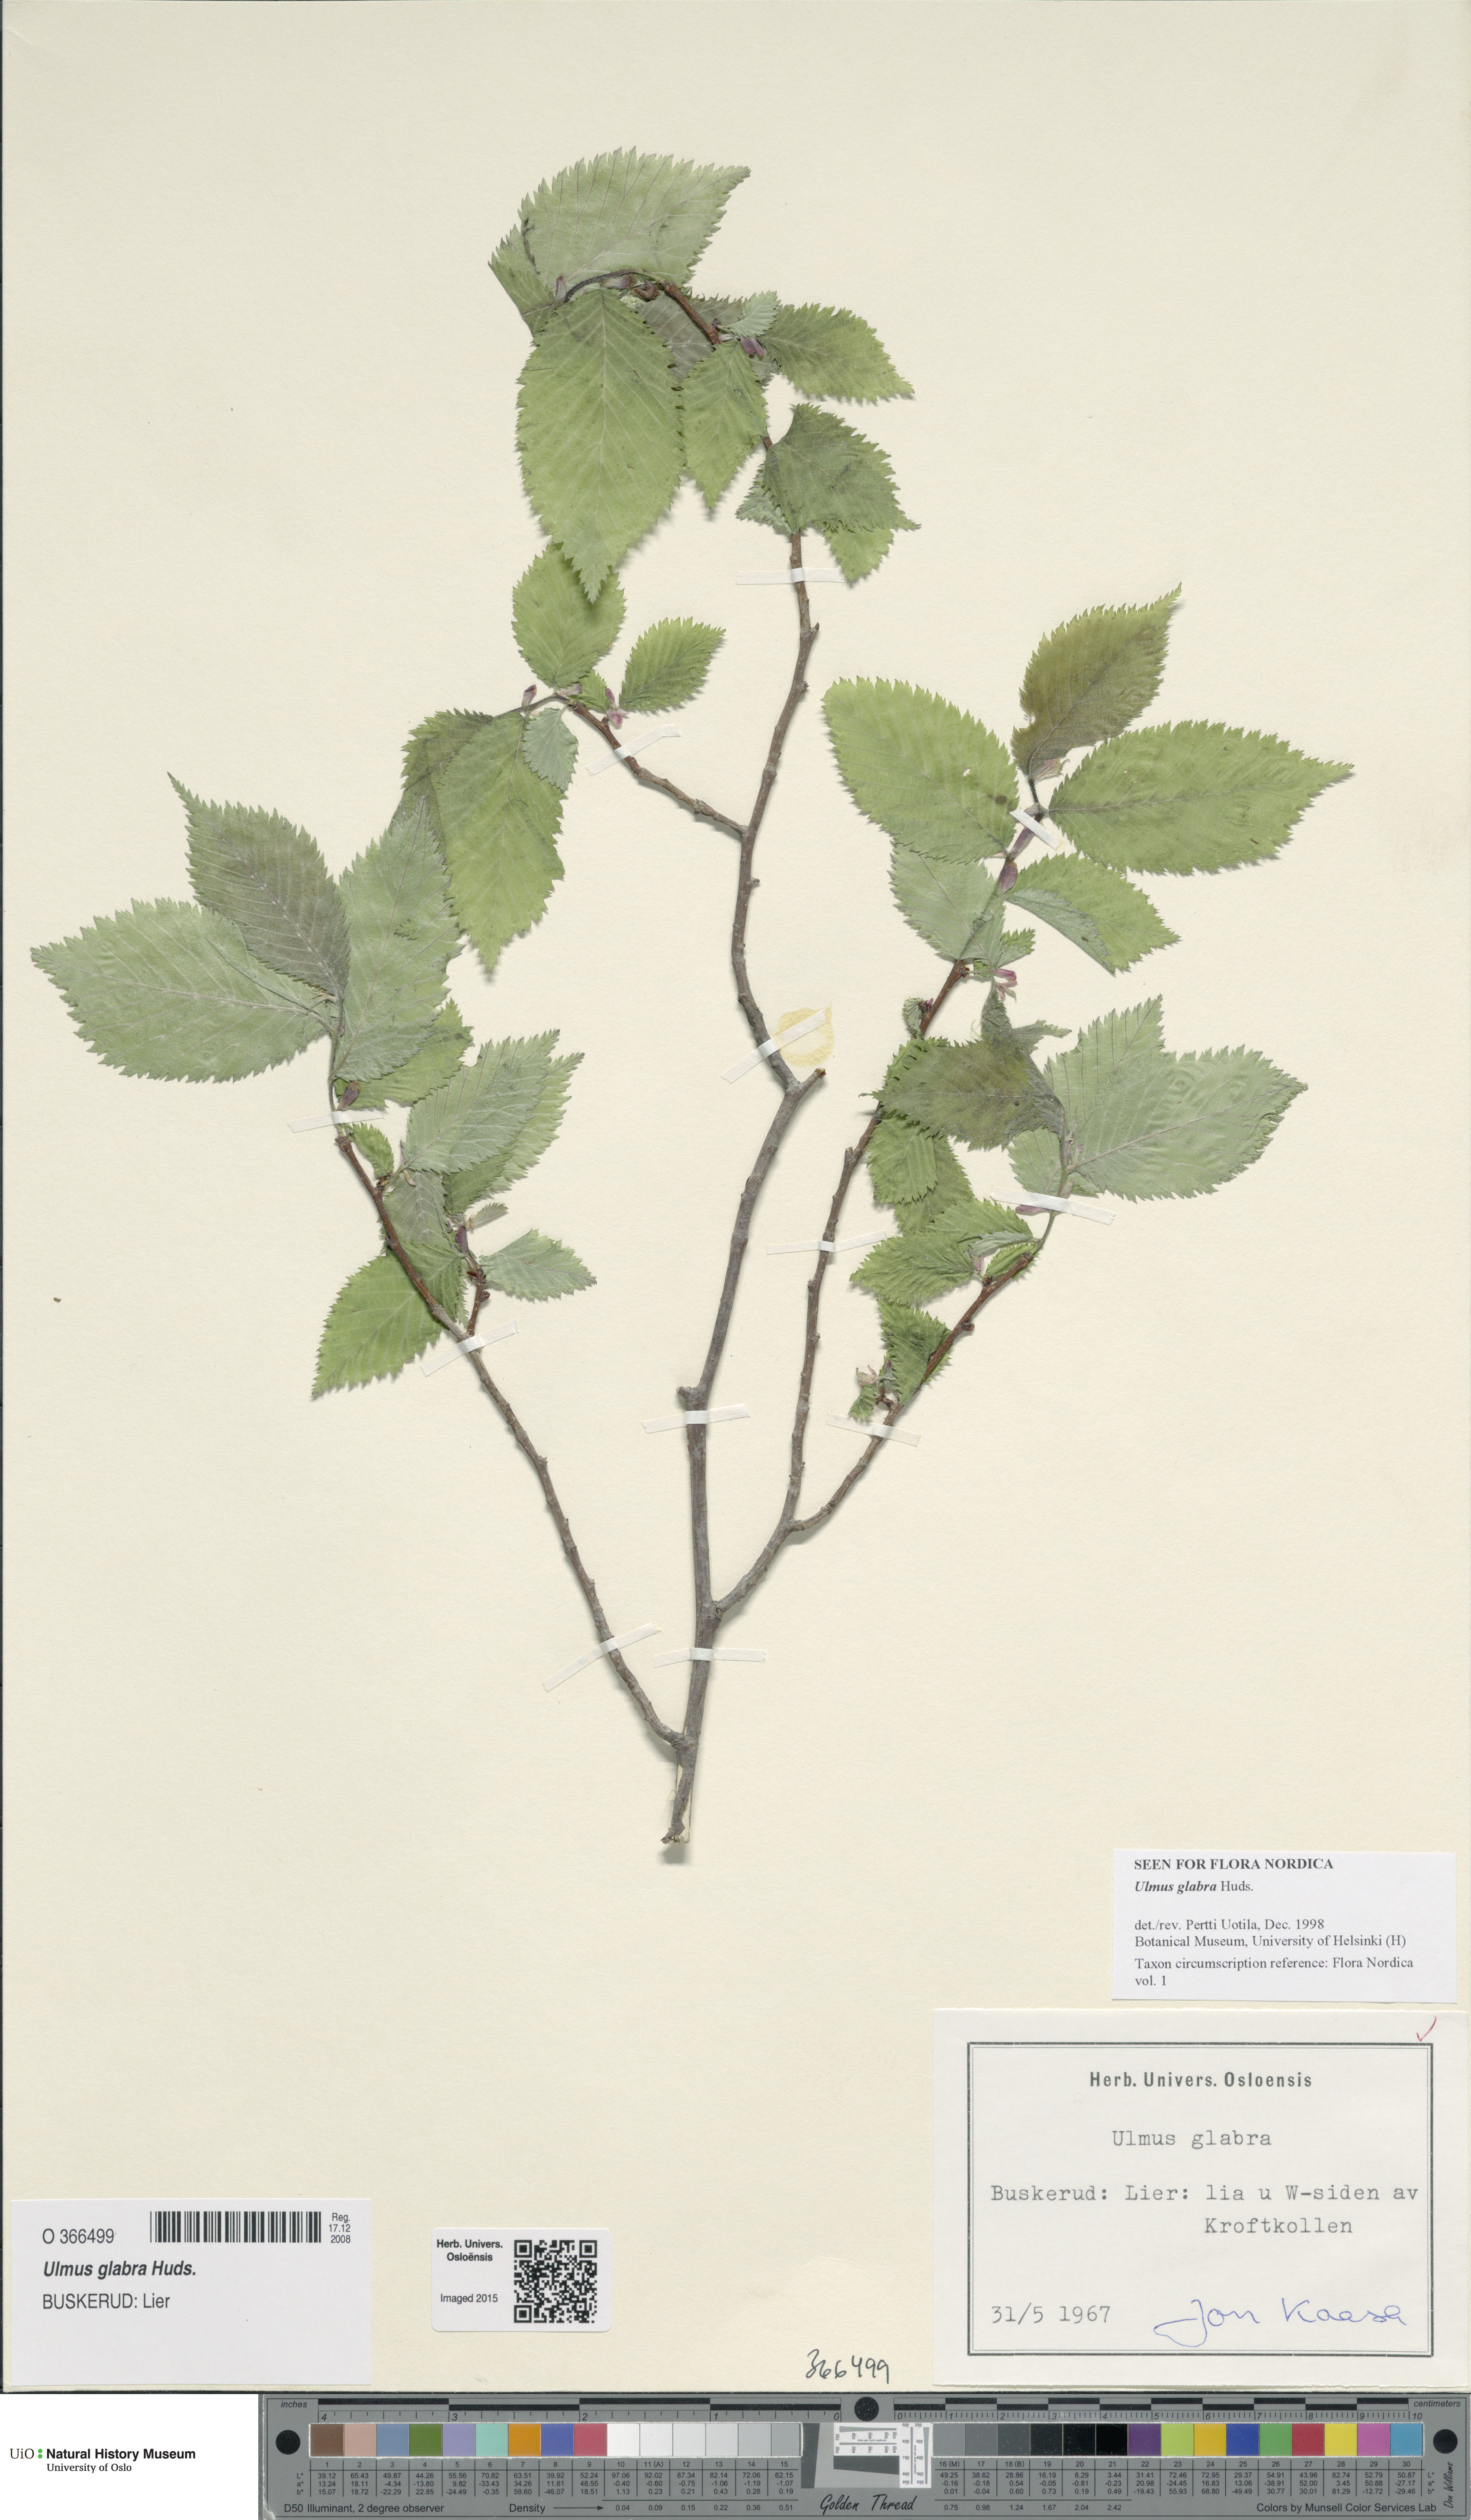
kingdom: Plantae
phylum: Tracheophyta
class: Magnoliopsida
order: Rosales
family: Ulmaceae
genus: Ulmus
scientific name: Ulmus glabra
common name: Wych elm
